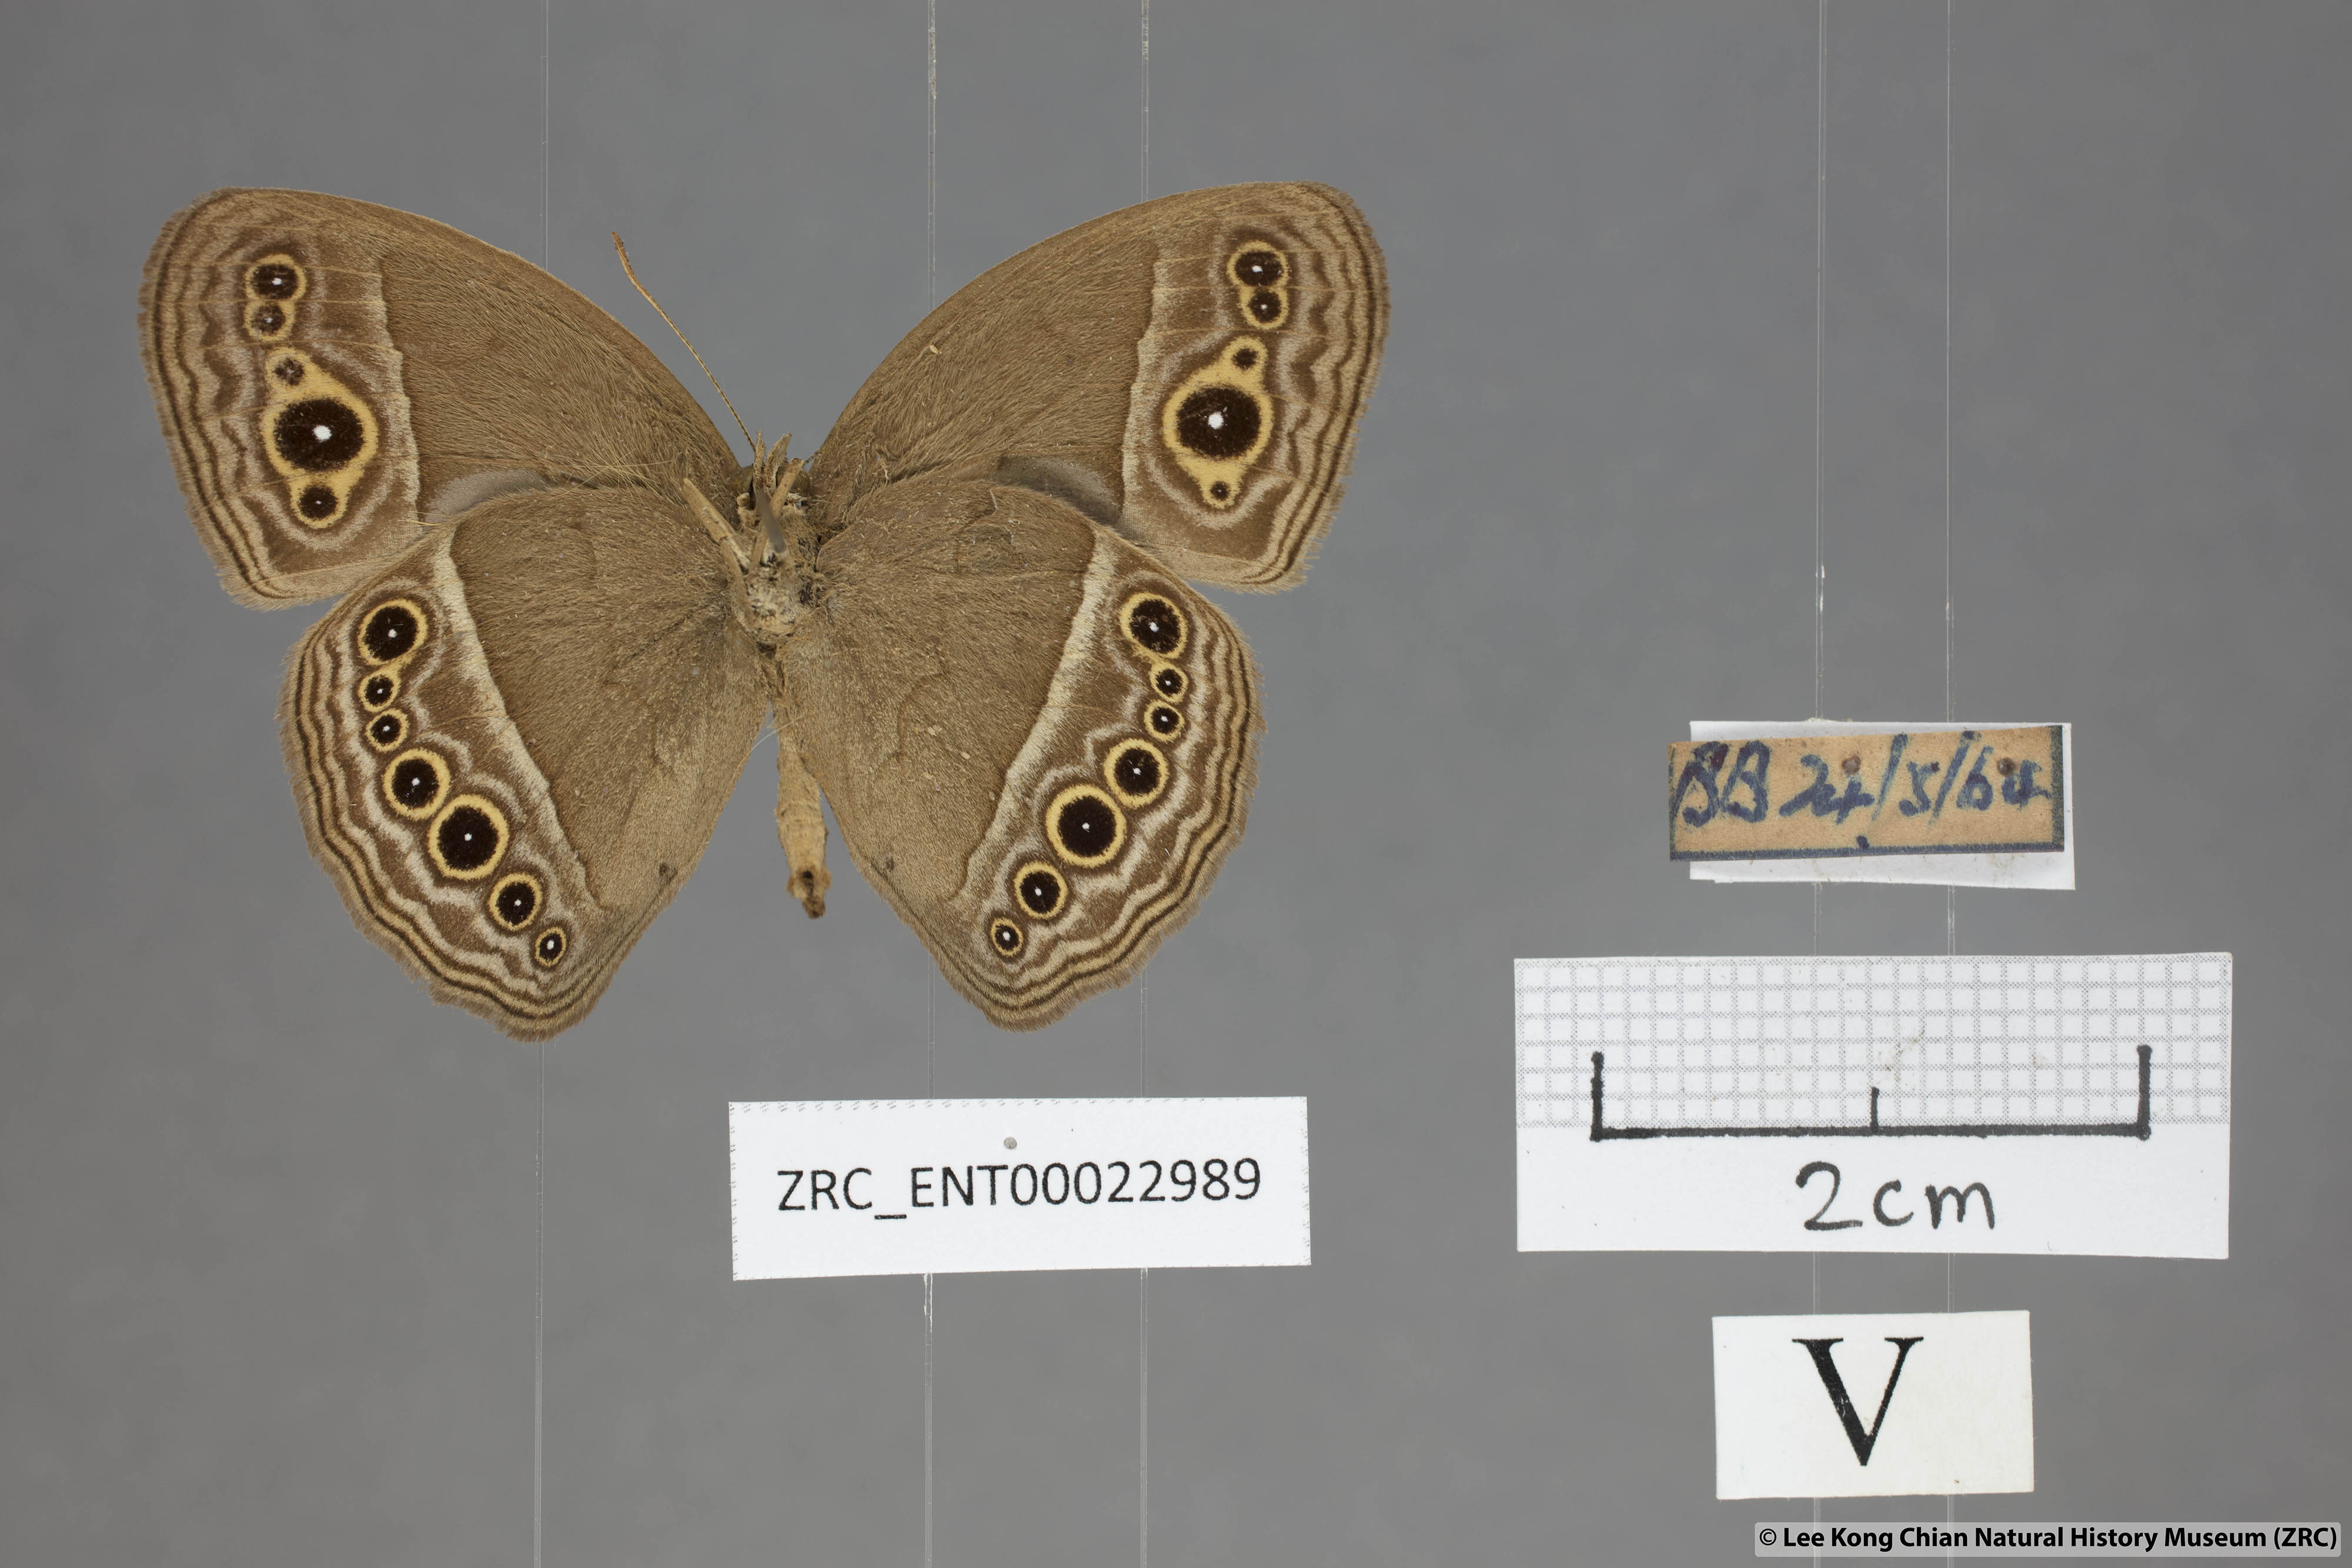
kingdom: Animalia
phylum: Arthropoda
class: Insecta
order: Lepidoptera
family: Nymphalidae
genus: Mycalesis
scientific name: Mycalesis perseoides
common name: Burmese bushbrown
